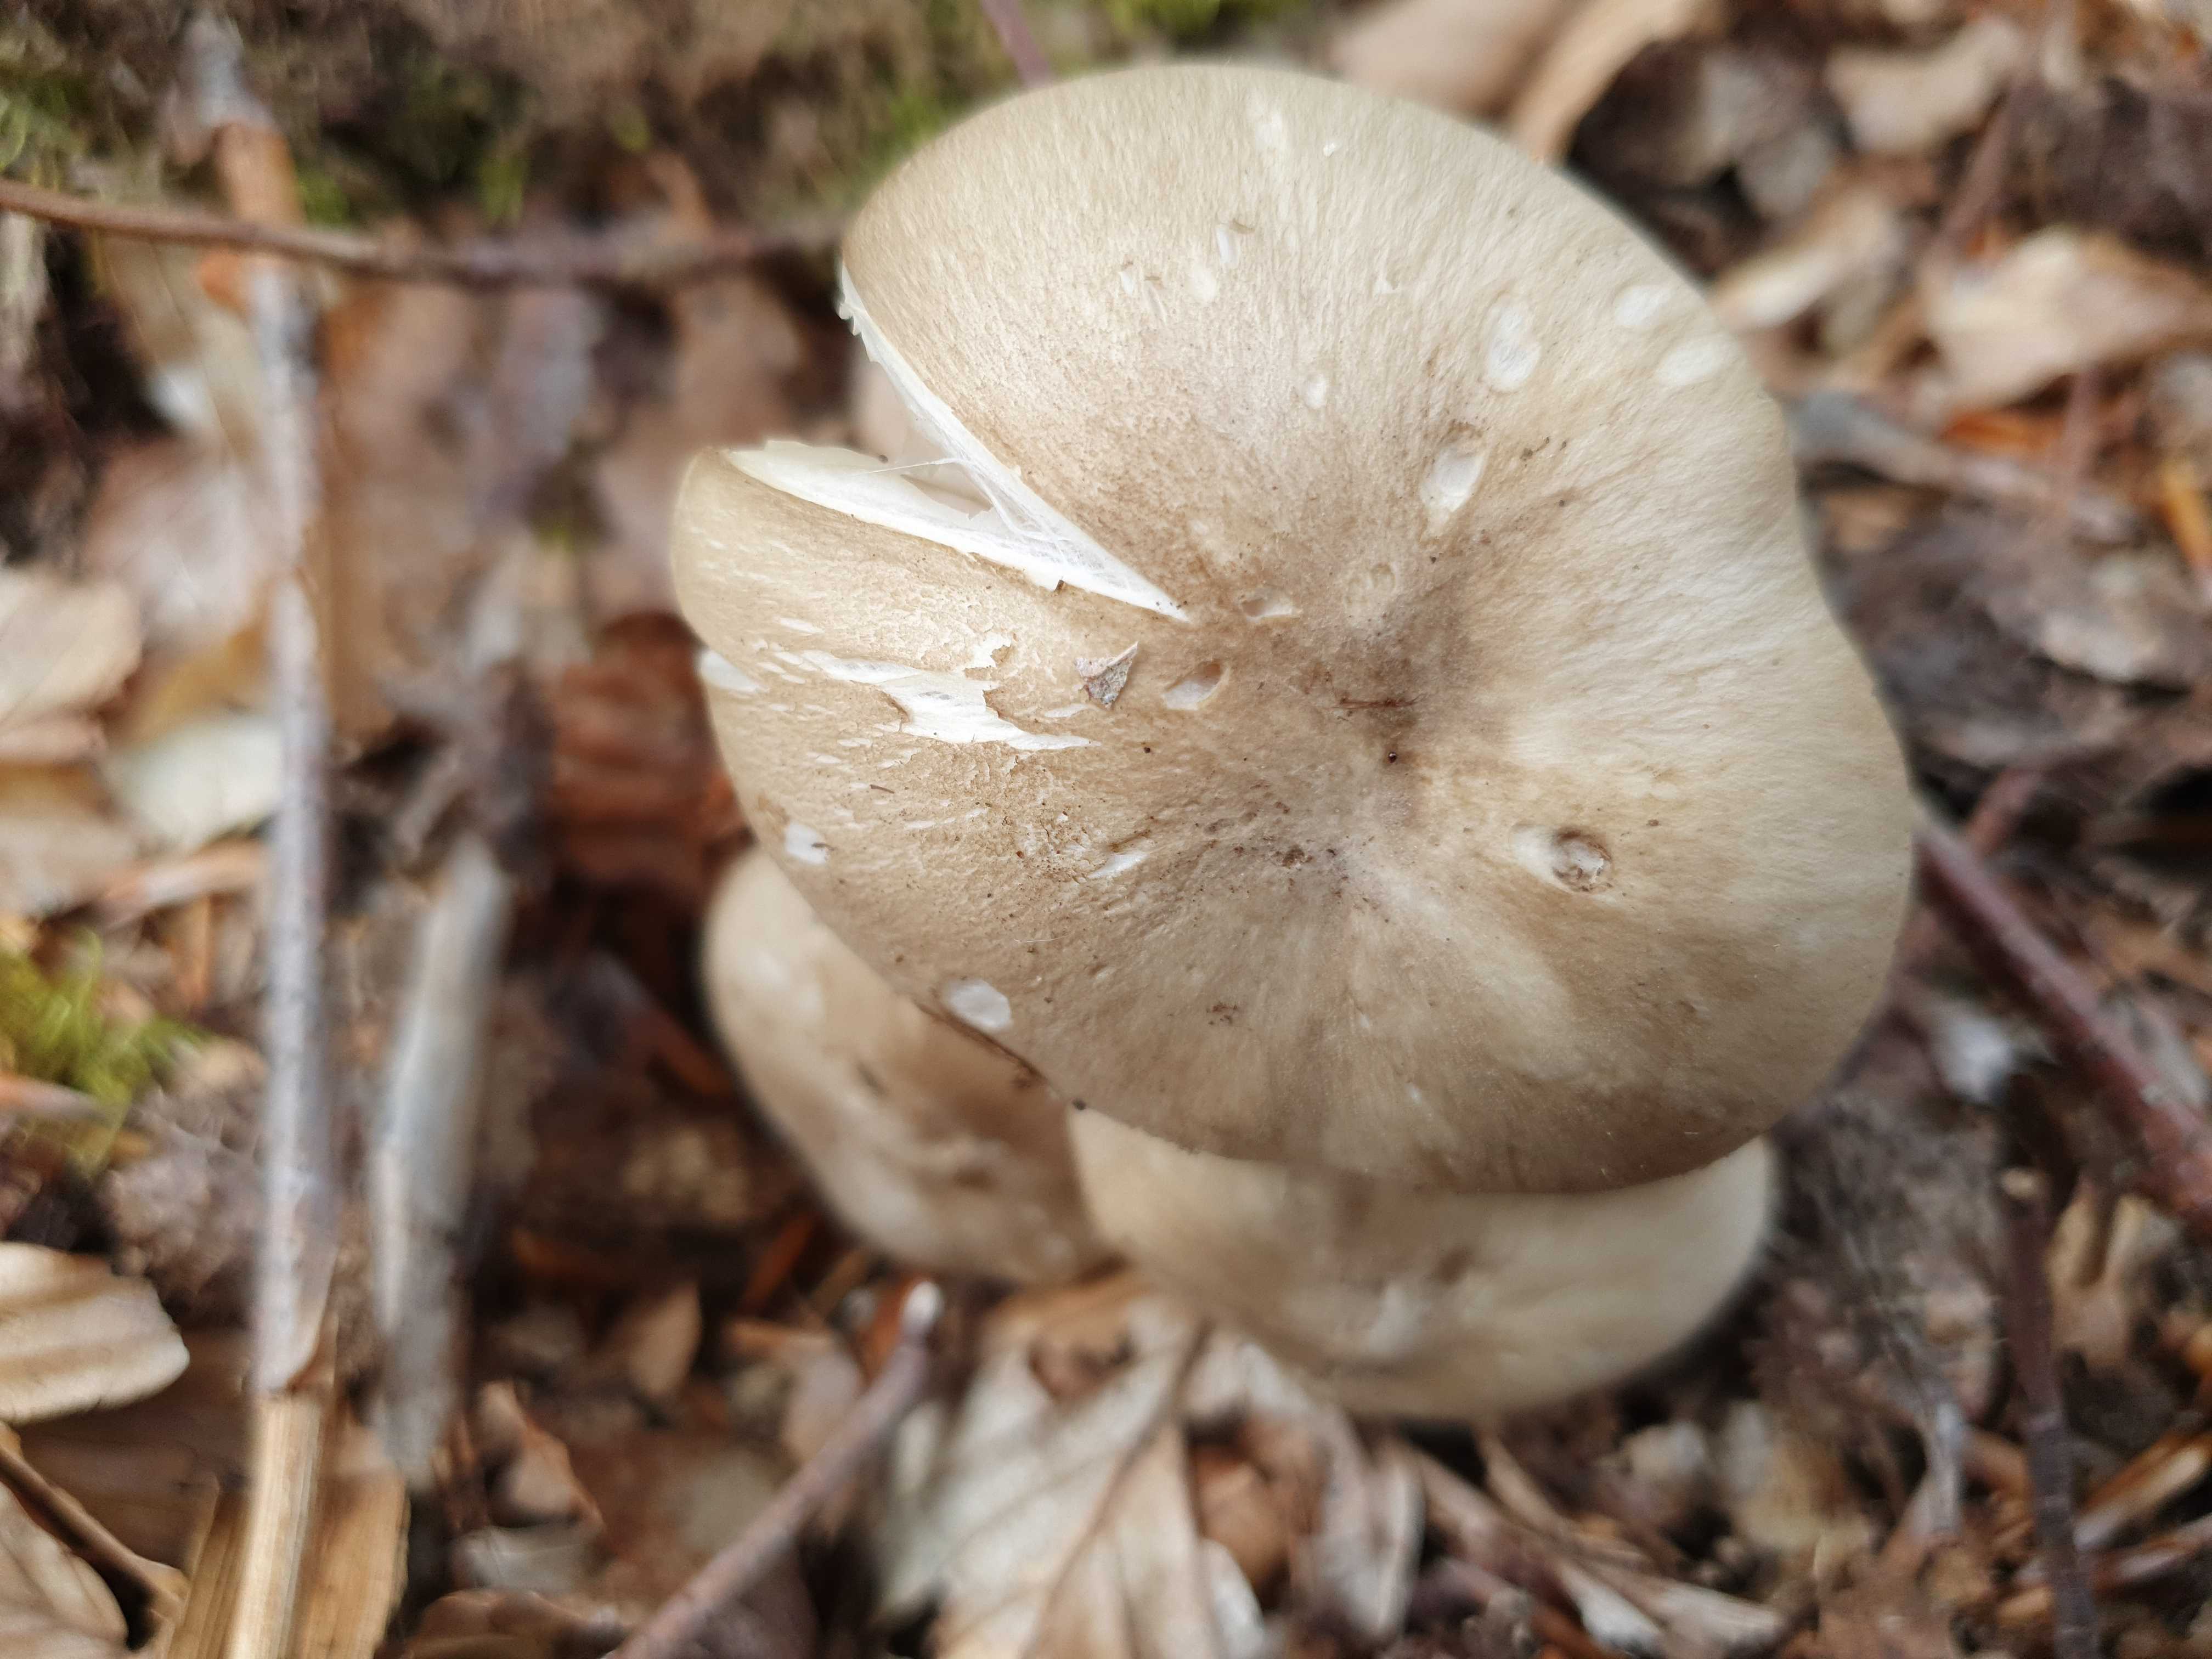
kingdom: Fungi
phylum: Basidiomycota
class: Agaricomycetes
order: Agaricales
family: Tricholomataceae
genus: Megacollybia
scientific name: Megacollybia platyphylla
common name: bredbladet væbnerhat
